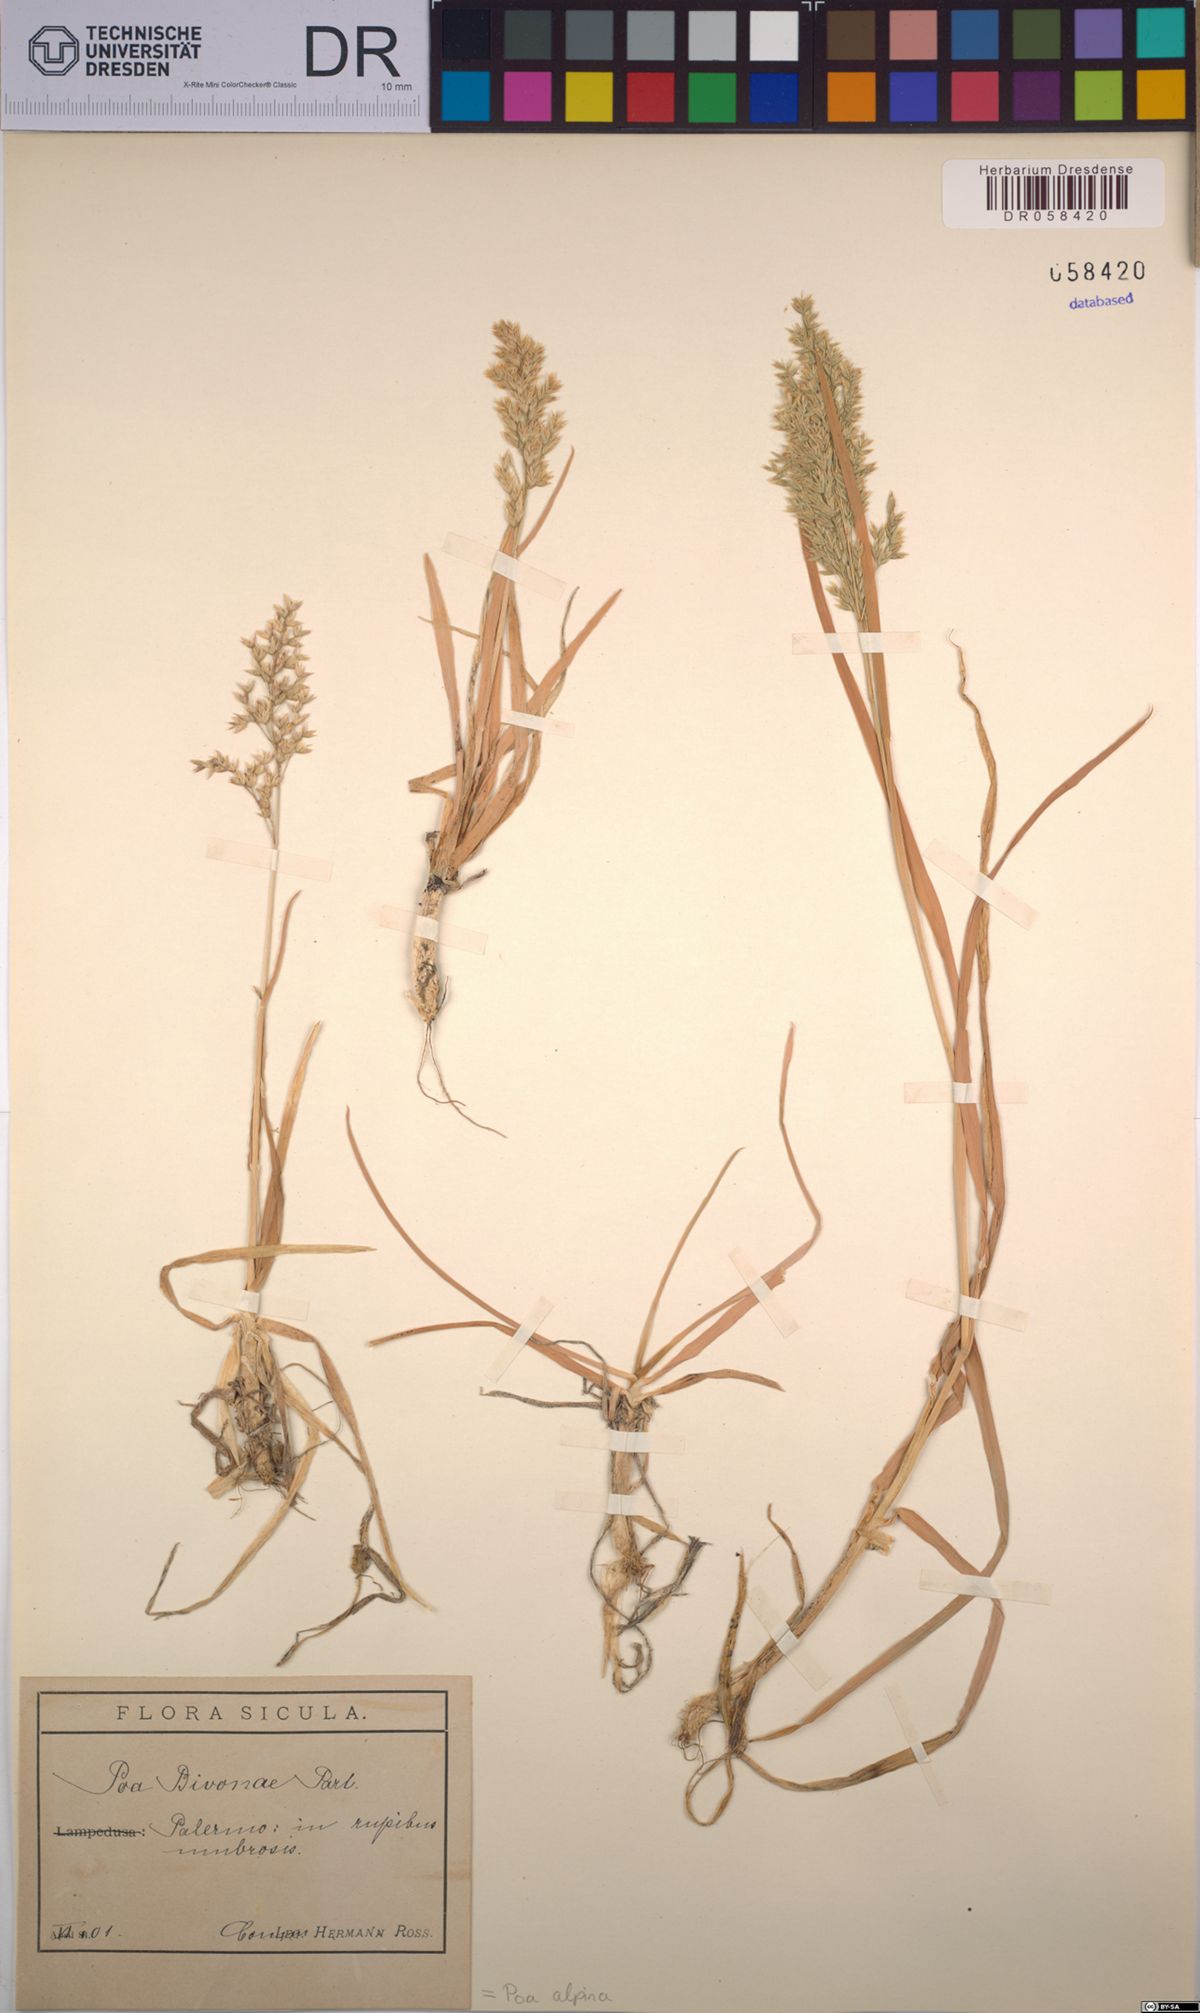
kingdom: Plantae
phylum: Tracheophyta
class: Liliopsida
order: Poales
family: Poaceae
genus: Poa
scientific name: Poa alpina
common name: Alpine bluegrass
